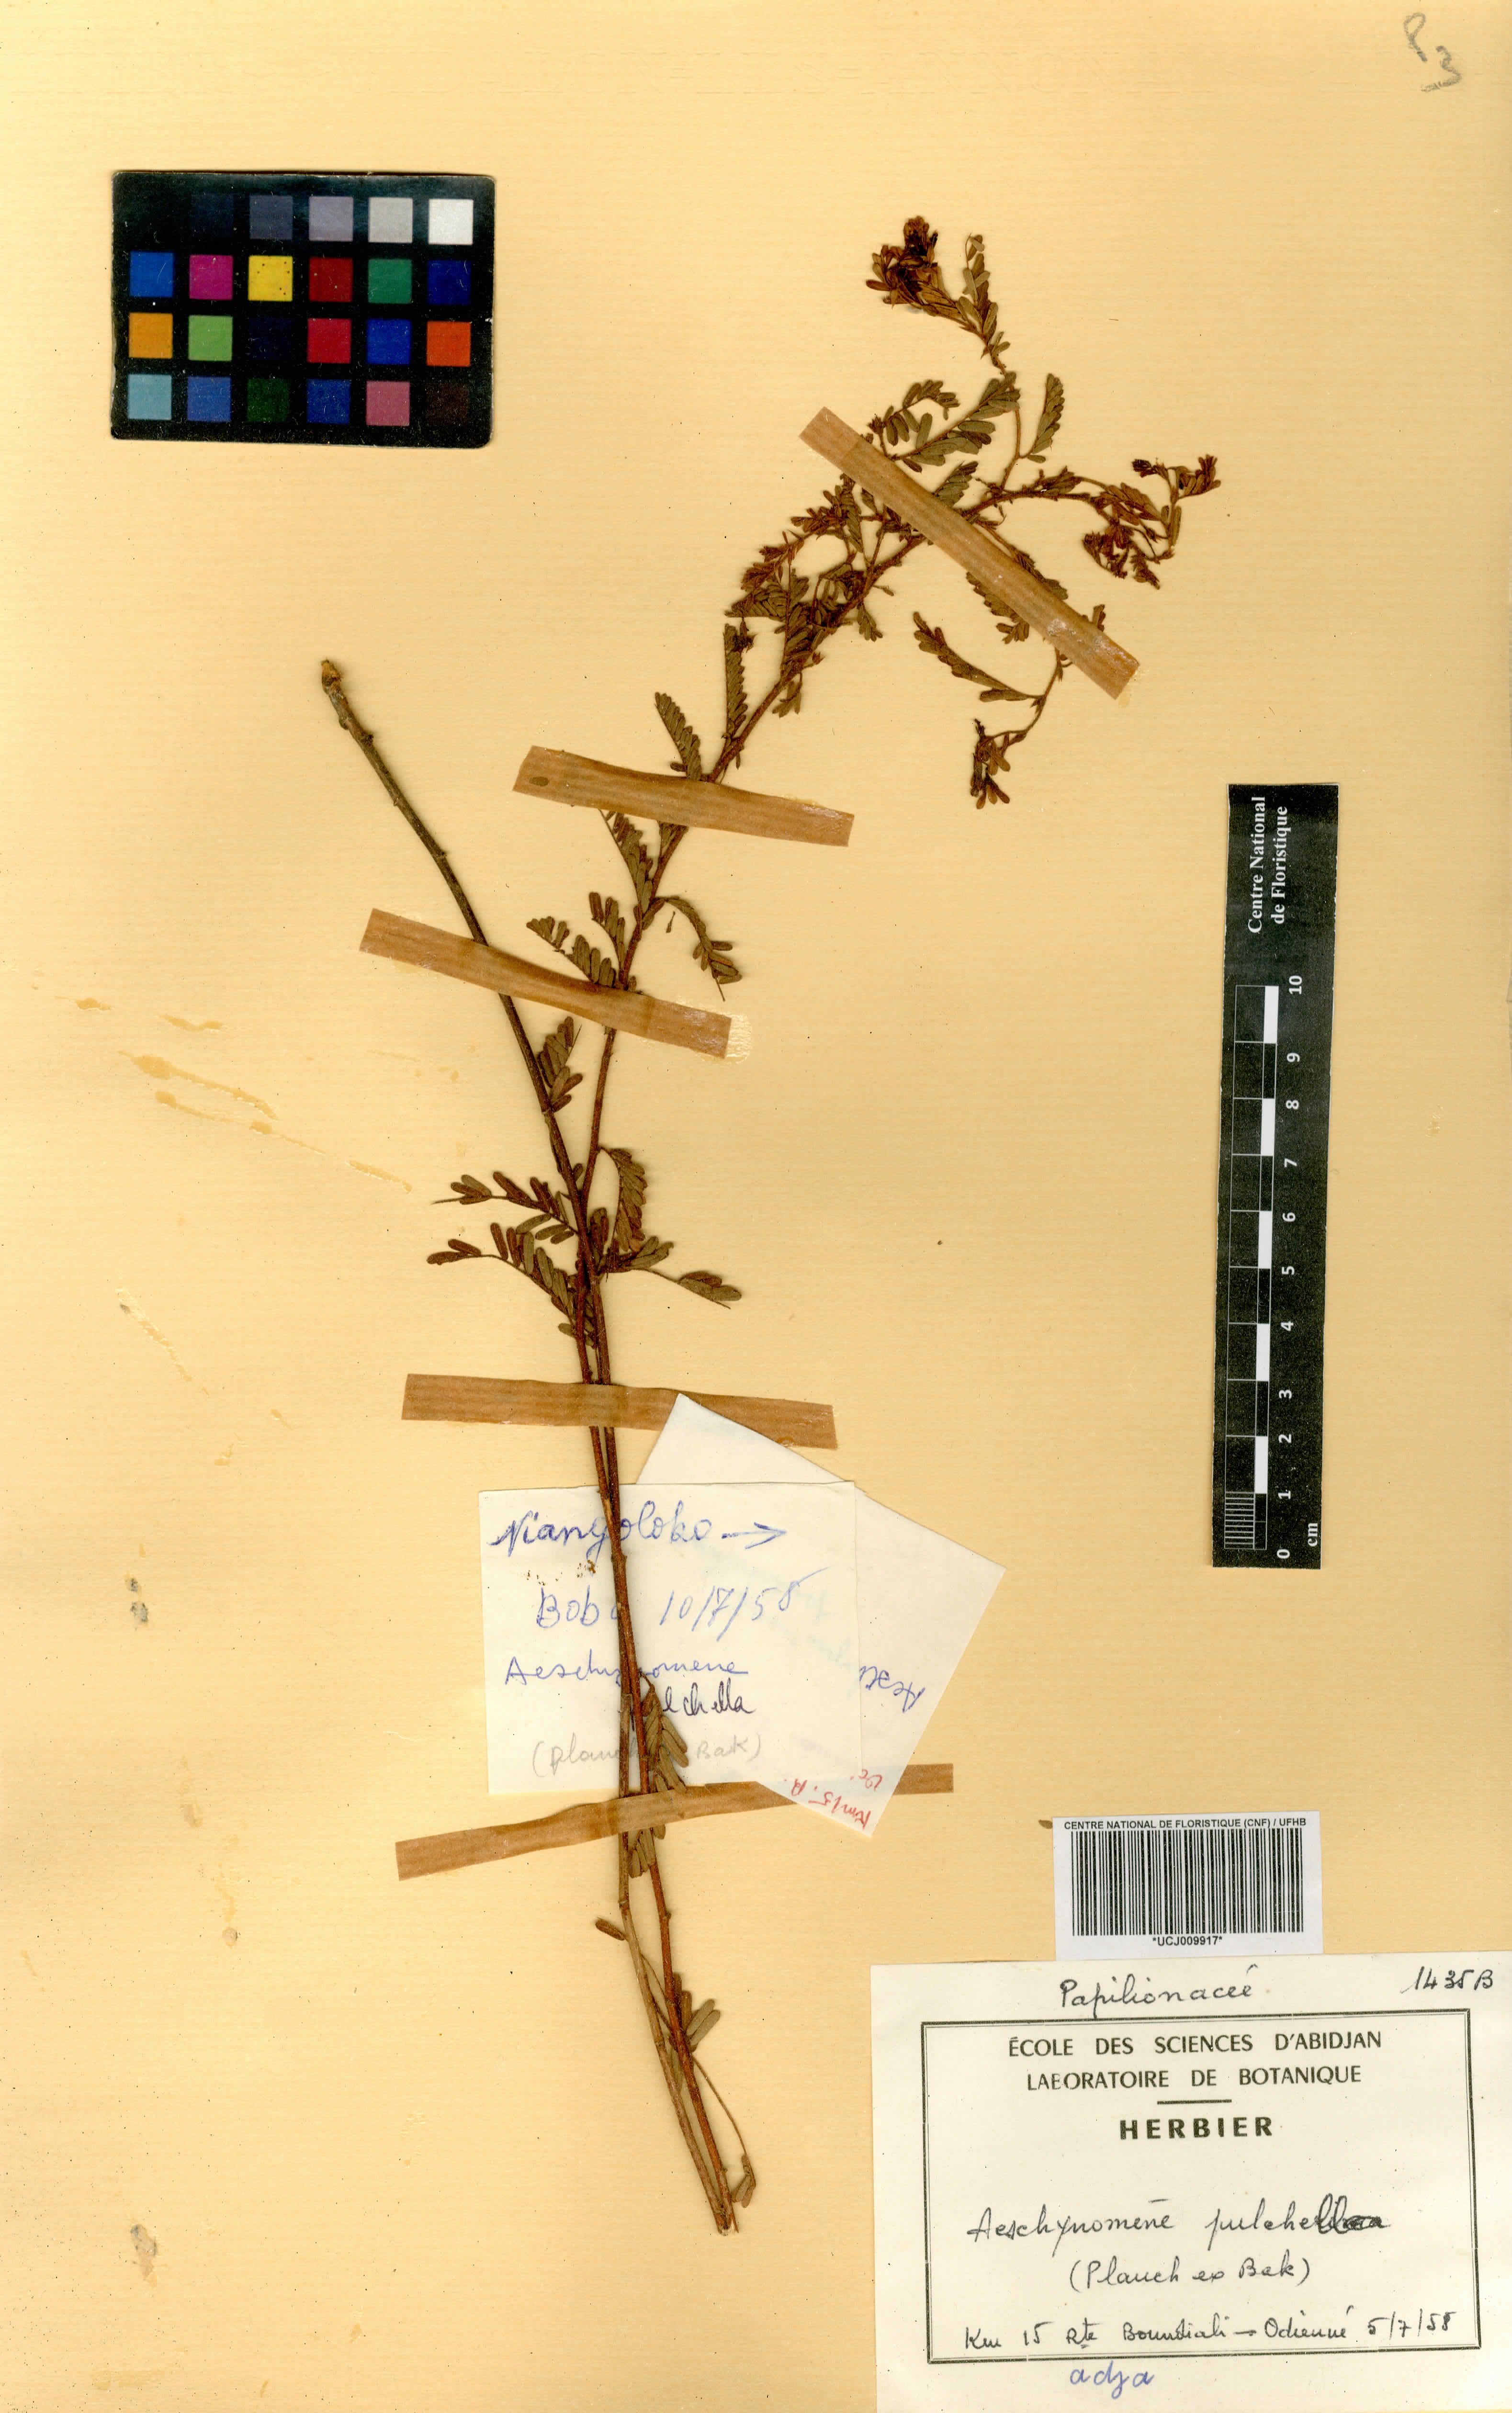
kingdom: Plantae
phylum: Tracheophyta
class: Magnoliopsida
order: Fabales
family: Fabaceae
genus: Aeschynomene
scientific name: Aeschynomene pulchella
